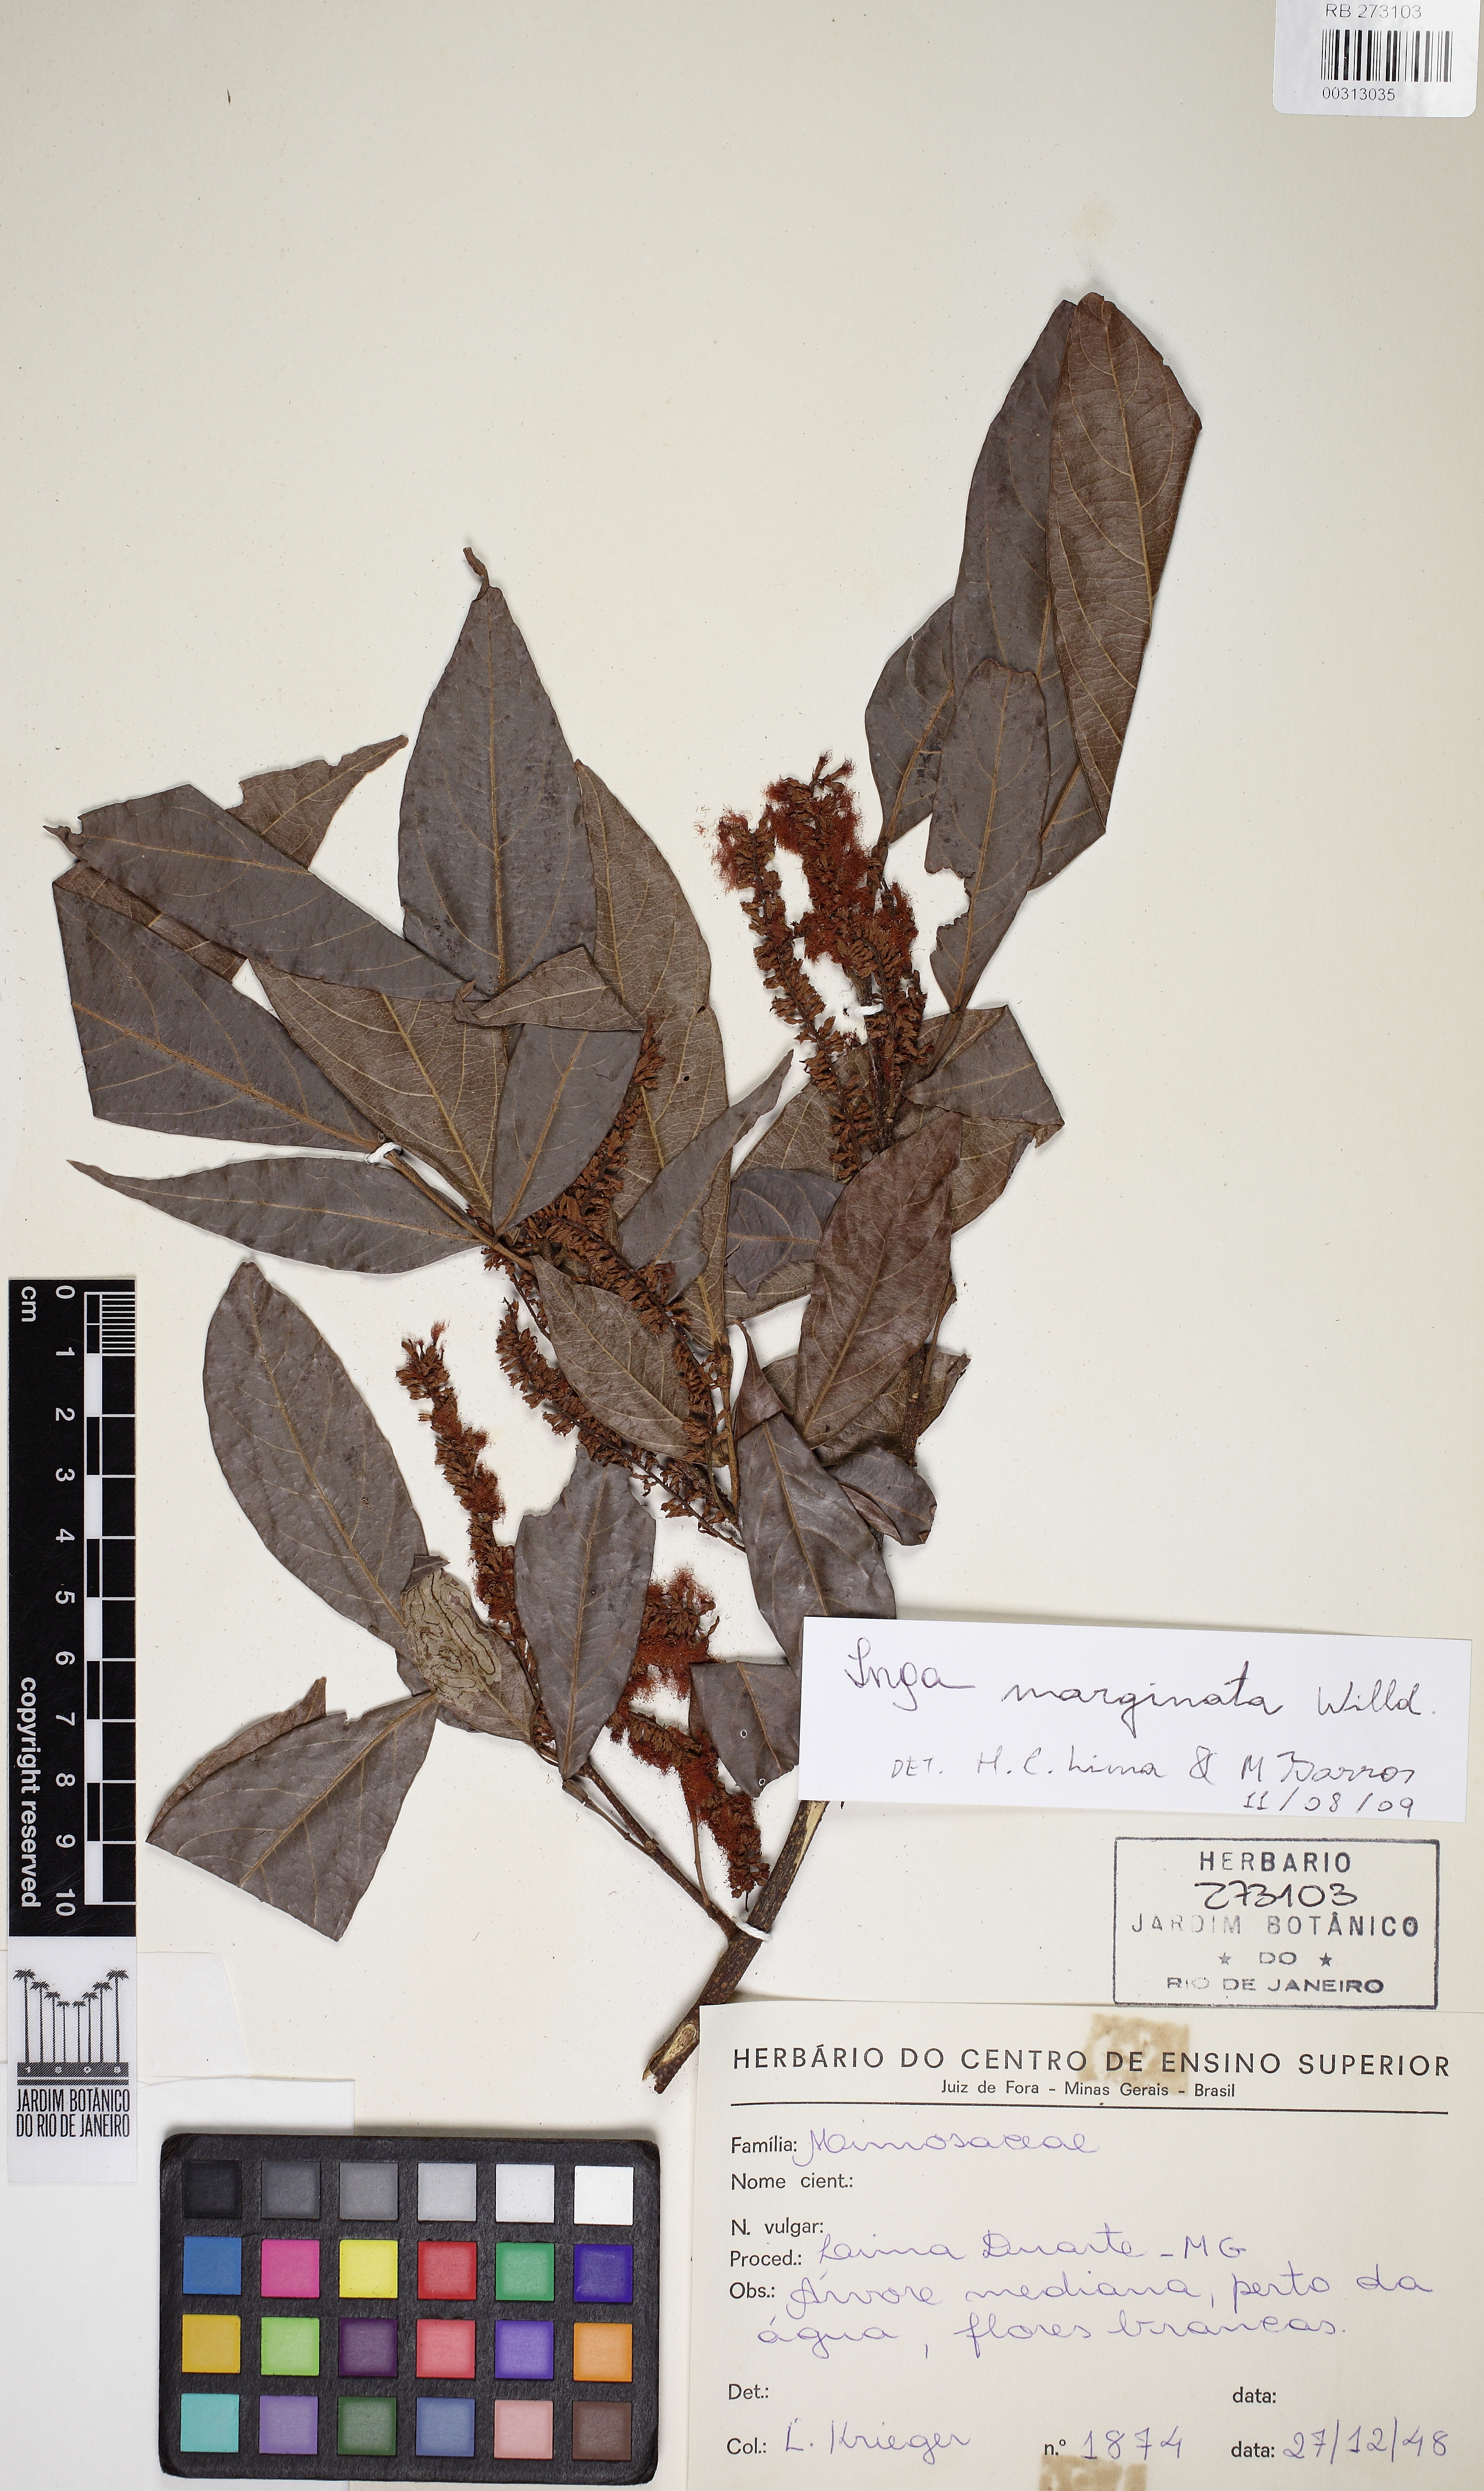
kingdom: Plantae
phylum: Tracheophyta
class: Magnoliopsida
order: Fabales
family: Fabaceae
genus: Inga
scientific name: Inga marginata
